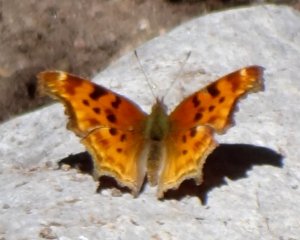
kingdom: Animalia
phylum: Arthropoda
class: Insecta
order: Lepidoptera
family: Nymphalidae
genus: Polygonia
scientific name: Polygonia satyrus
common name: Satyr Comma
